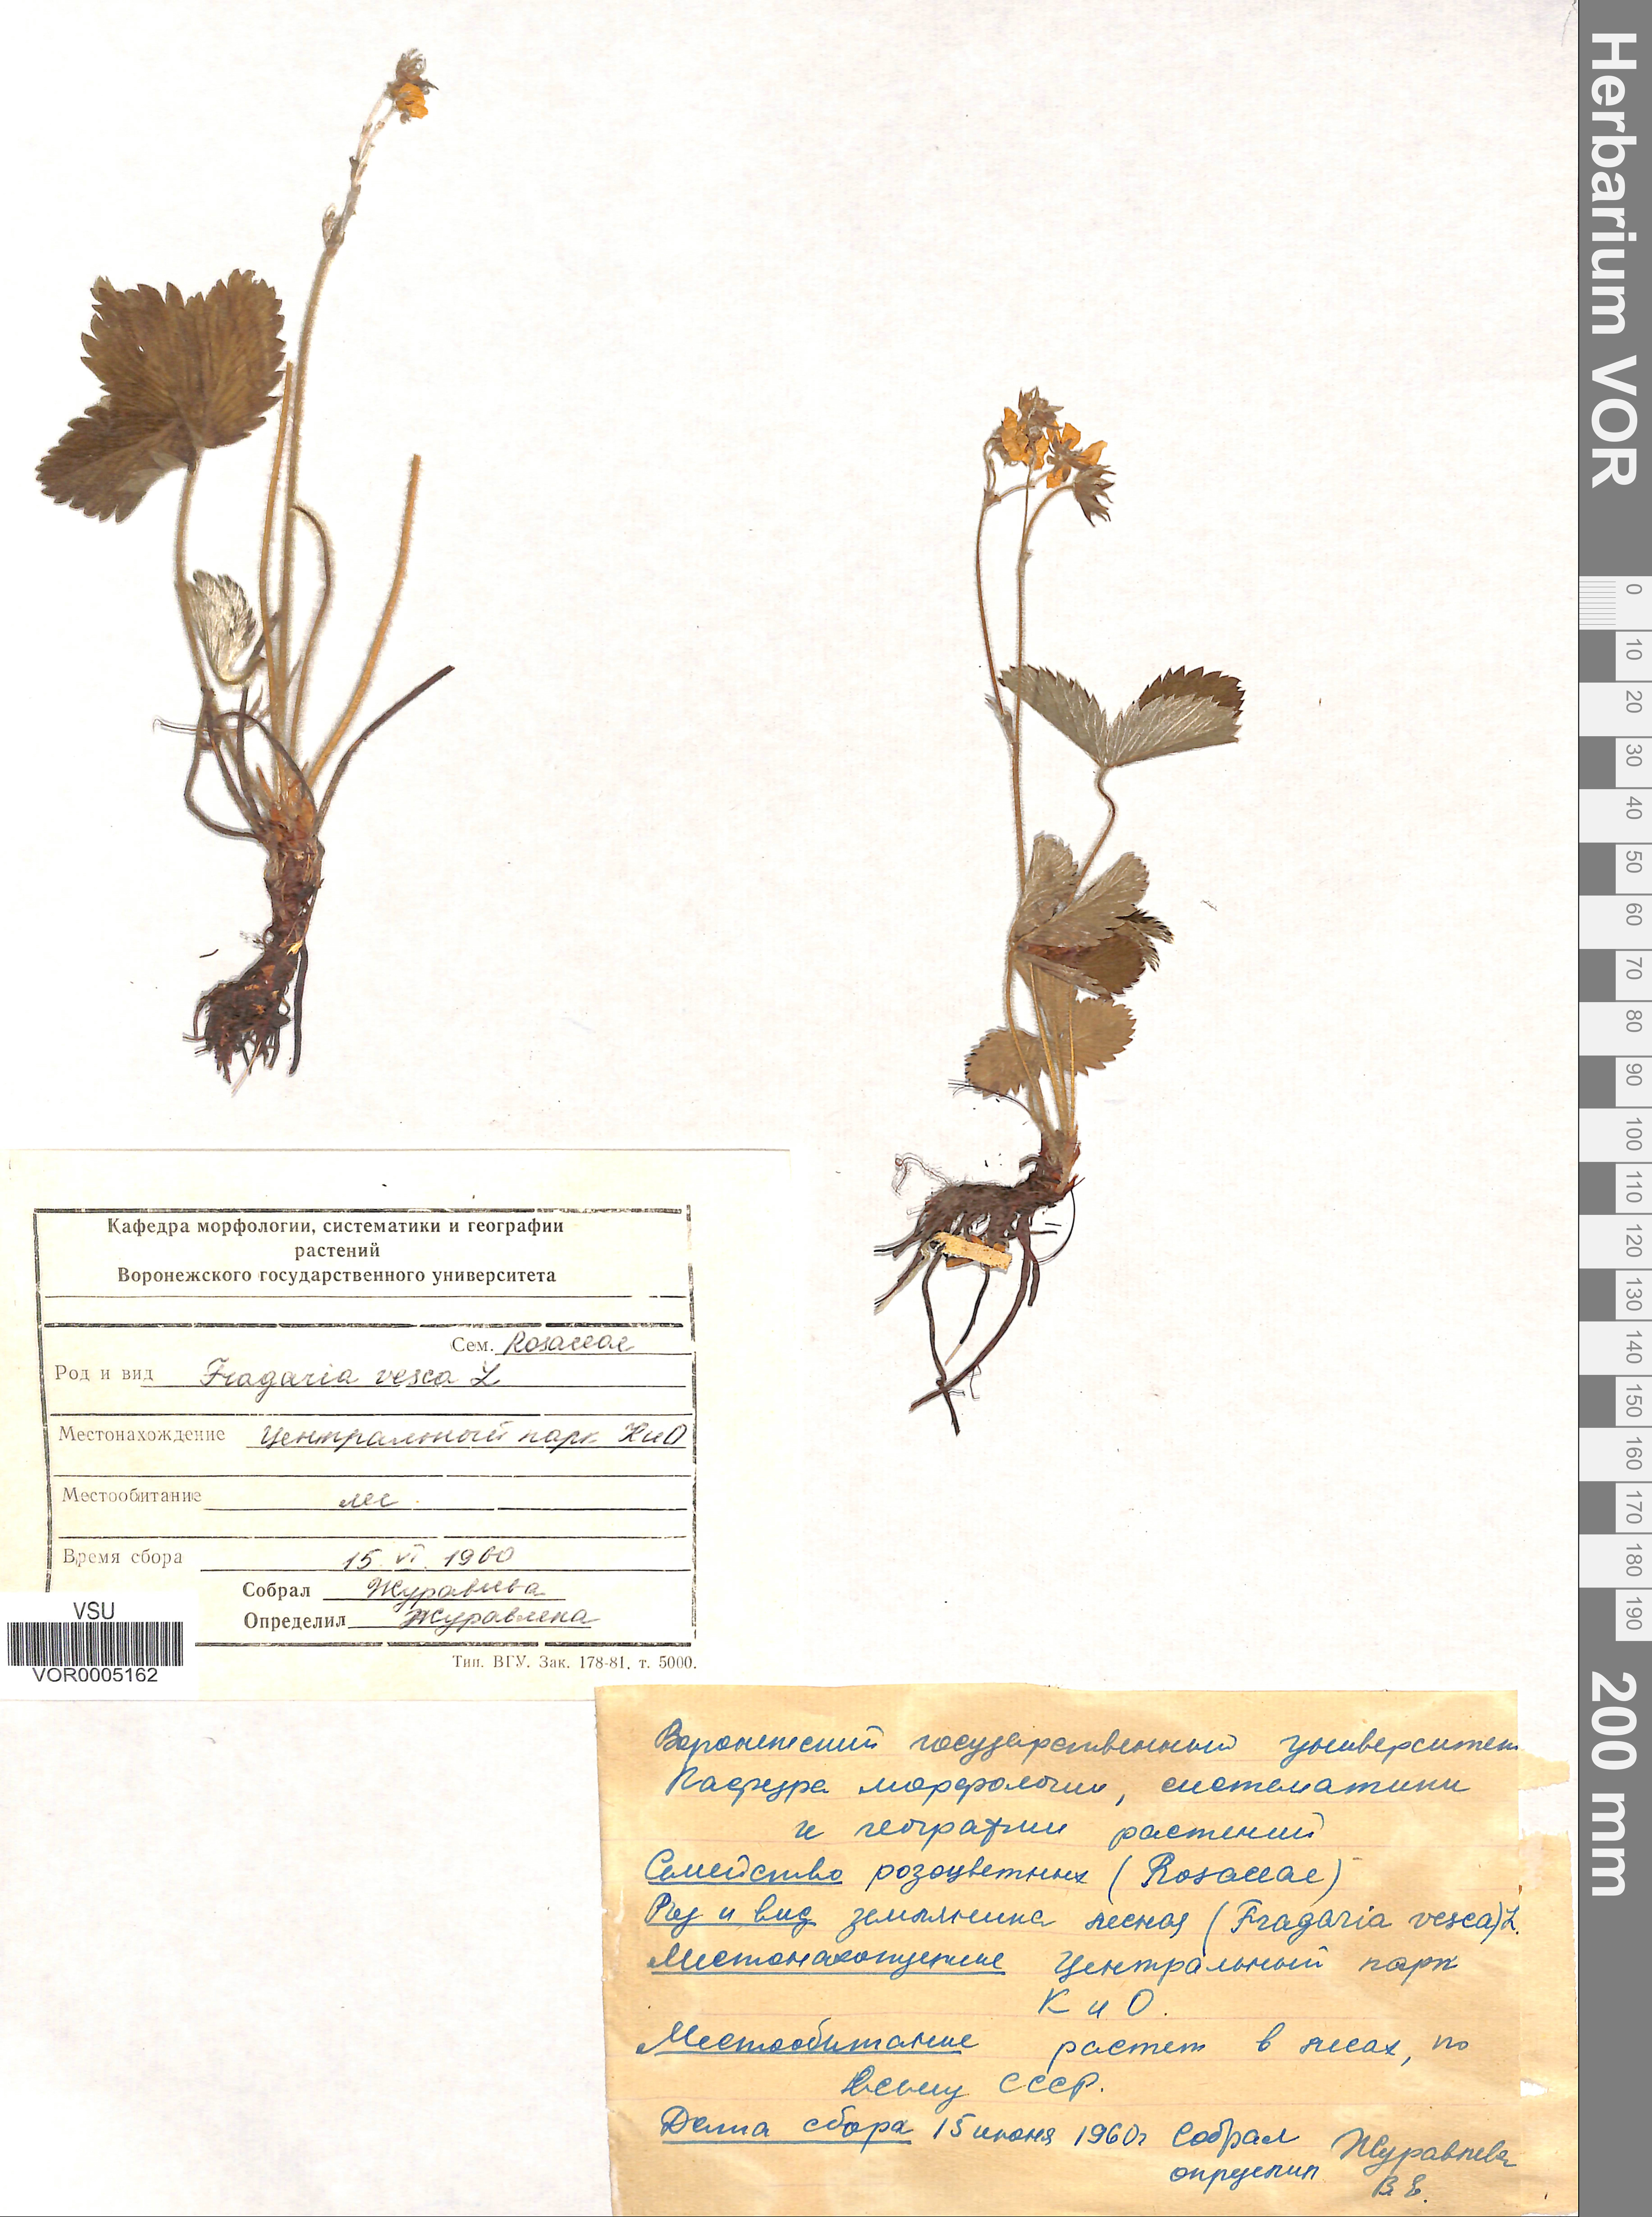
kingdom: Plantae
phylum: Tracheophyta
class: Magnoliopsida
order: Rosales
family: Rosaceae
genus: Fragaria
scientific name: Fragaria vesca
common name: Wild strawberry
